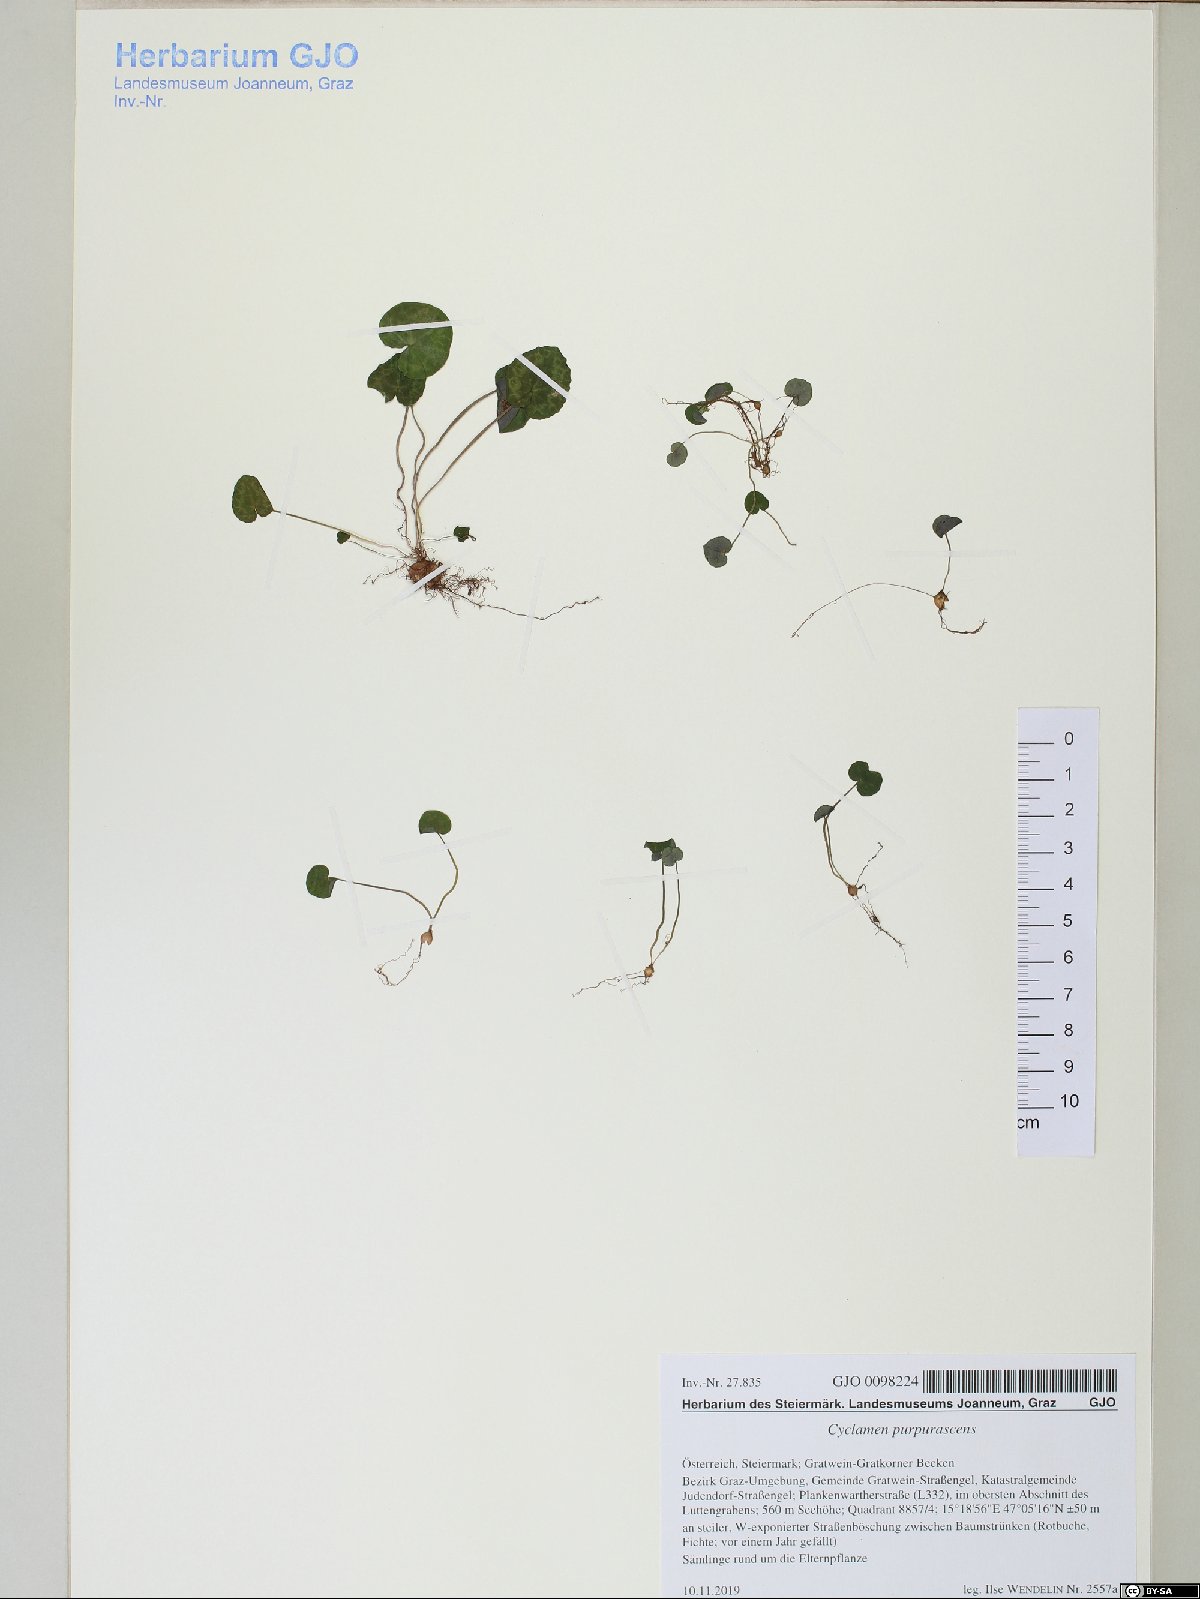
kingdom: Plantae
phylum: Tracheophyta
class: Magnoliopsida
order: Ericales
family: Primulaceae
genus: Cyclamen
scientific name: Cyclamen purpurascens
